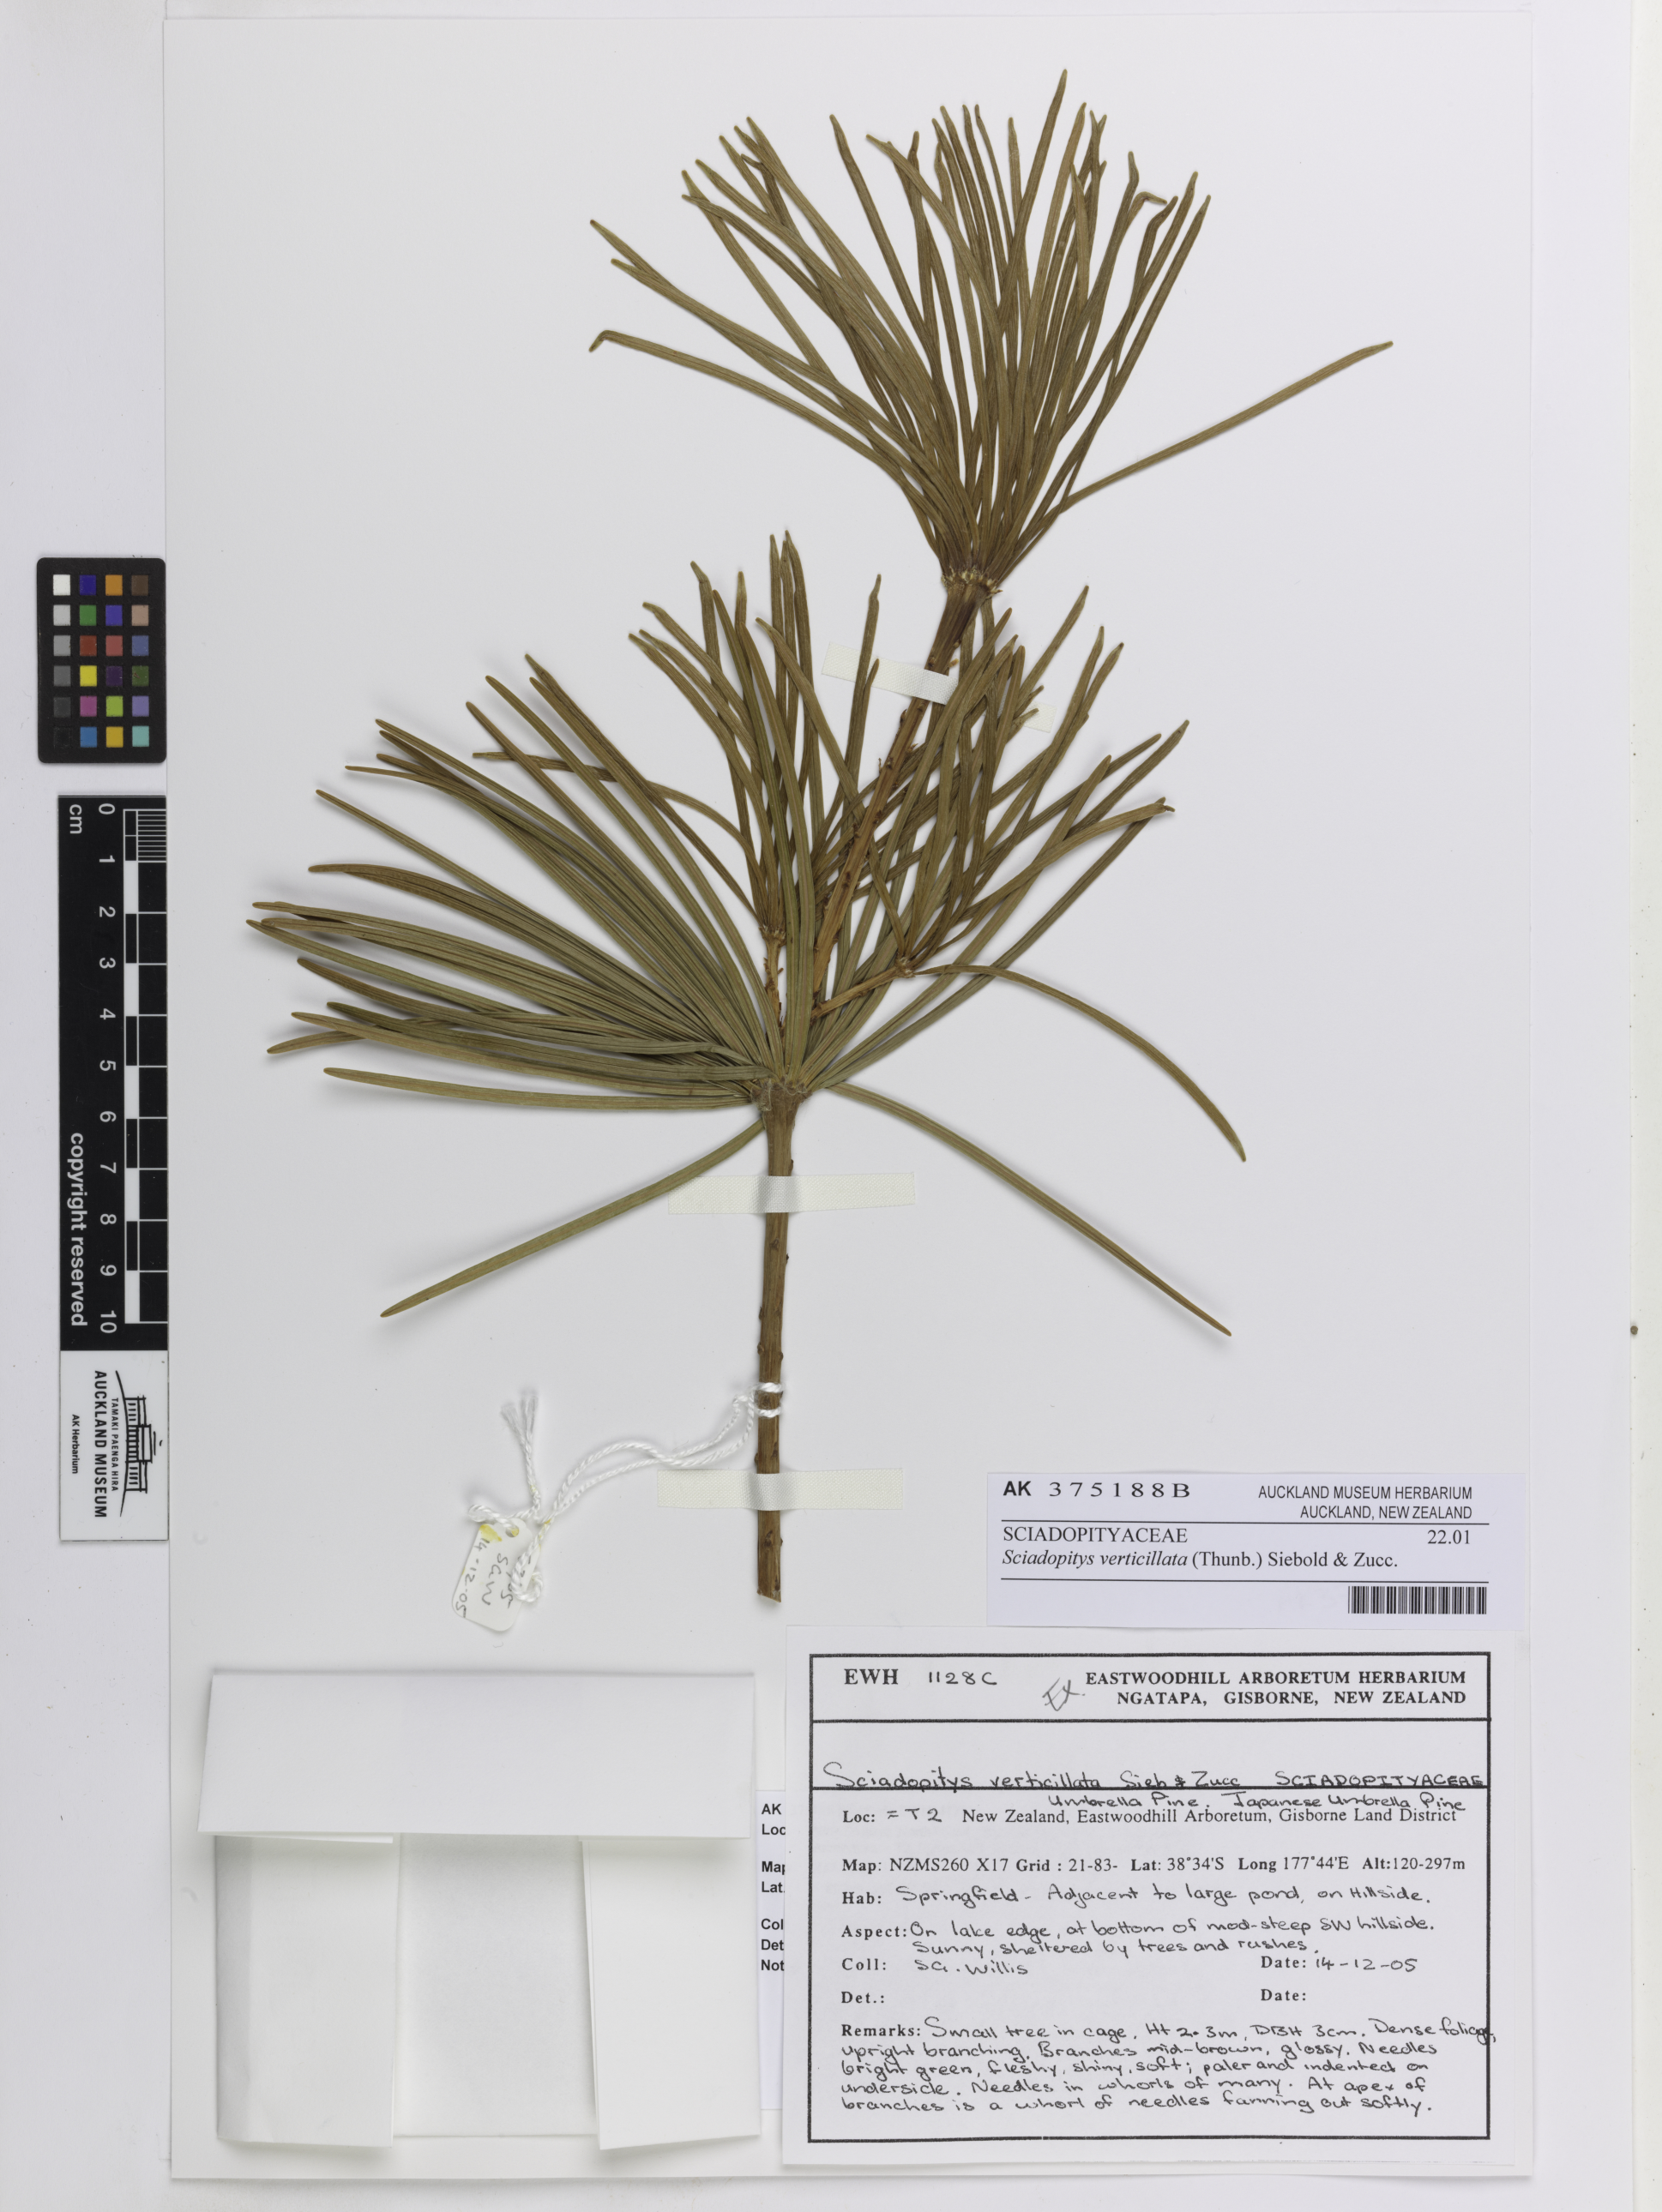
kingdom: Plantae
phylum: Tracheophyta
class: Pinopsida
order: Pinales
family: Sciadopityaceae
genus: Sciadopitys
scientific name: Sciadopitys verticillata
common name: Japanese umbrella pine
